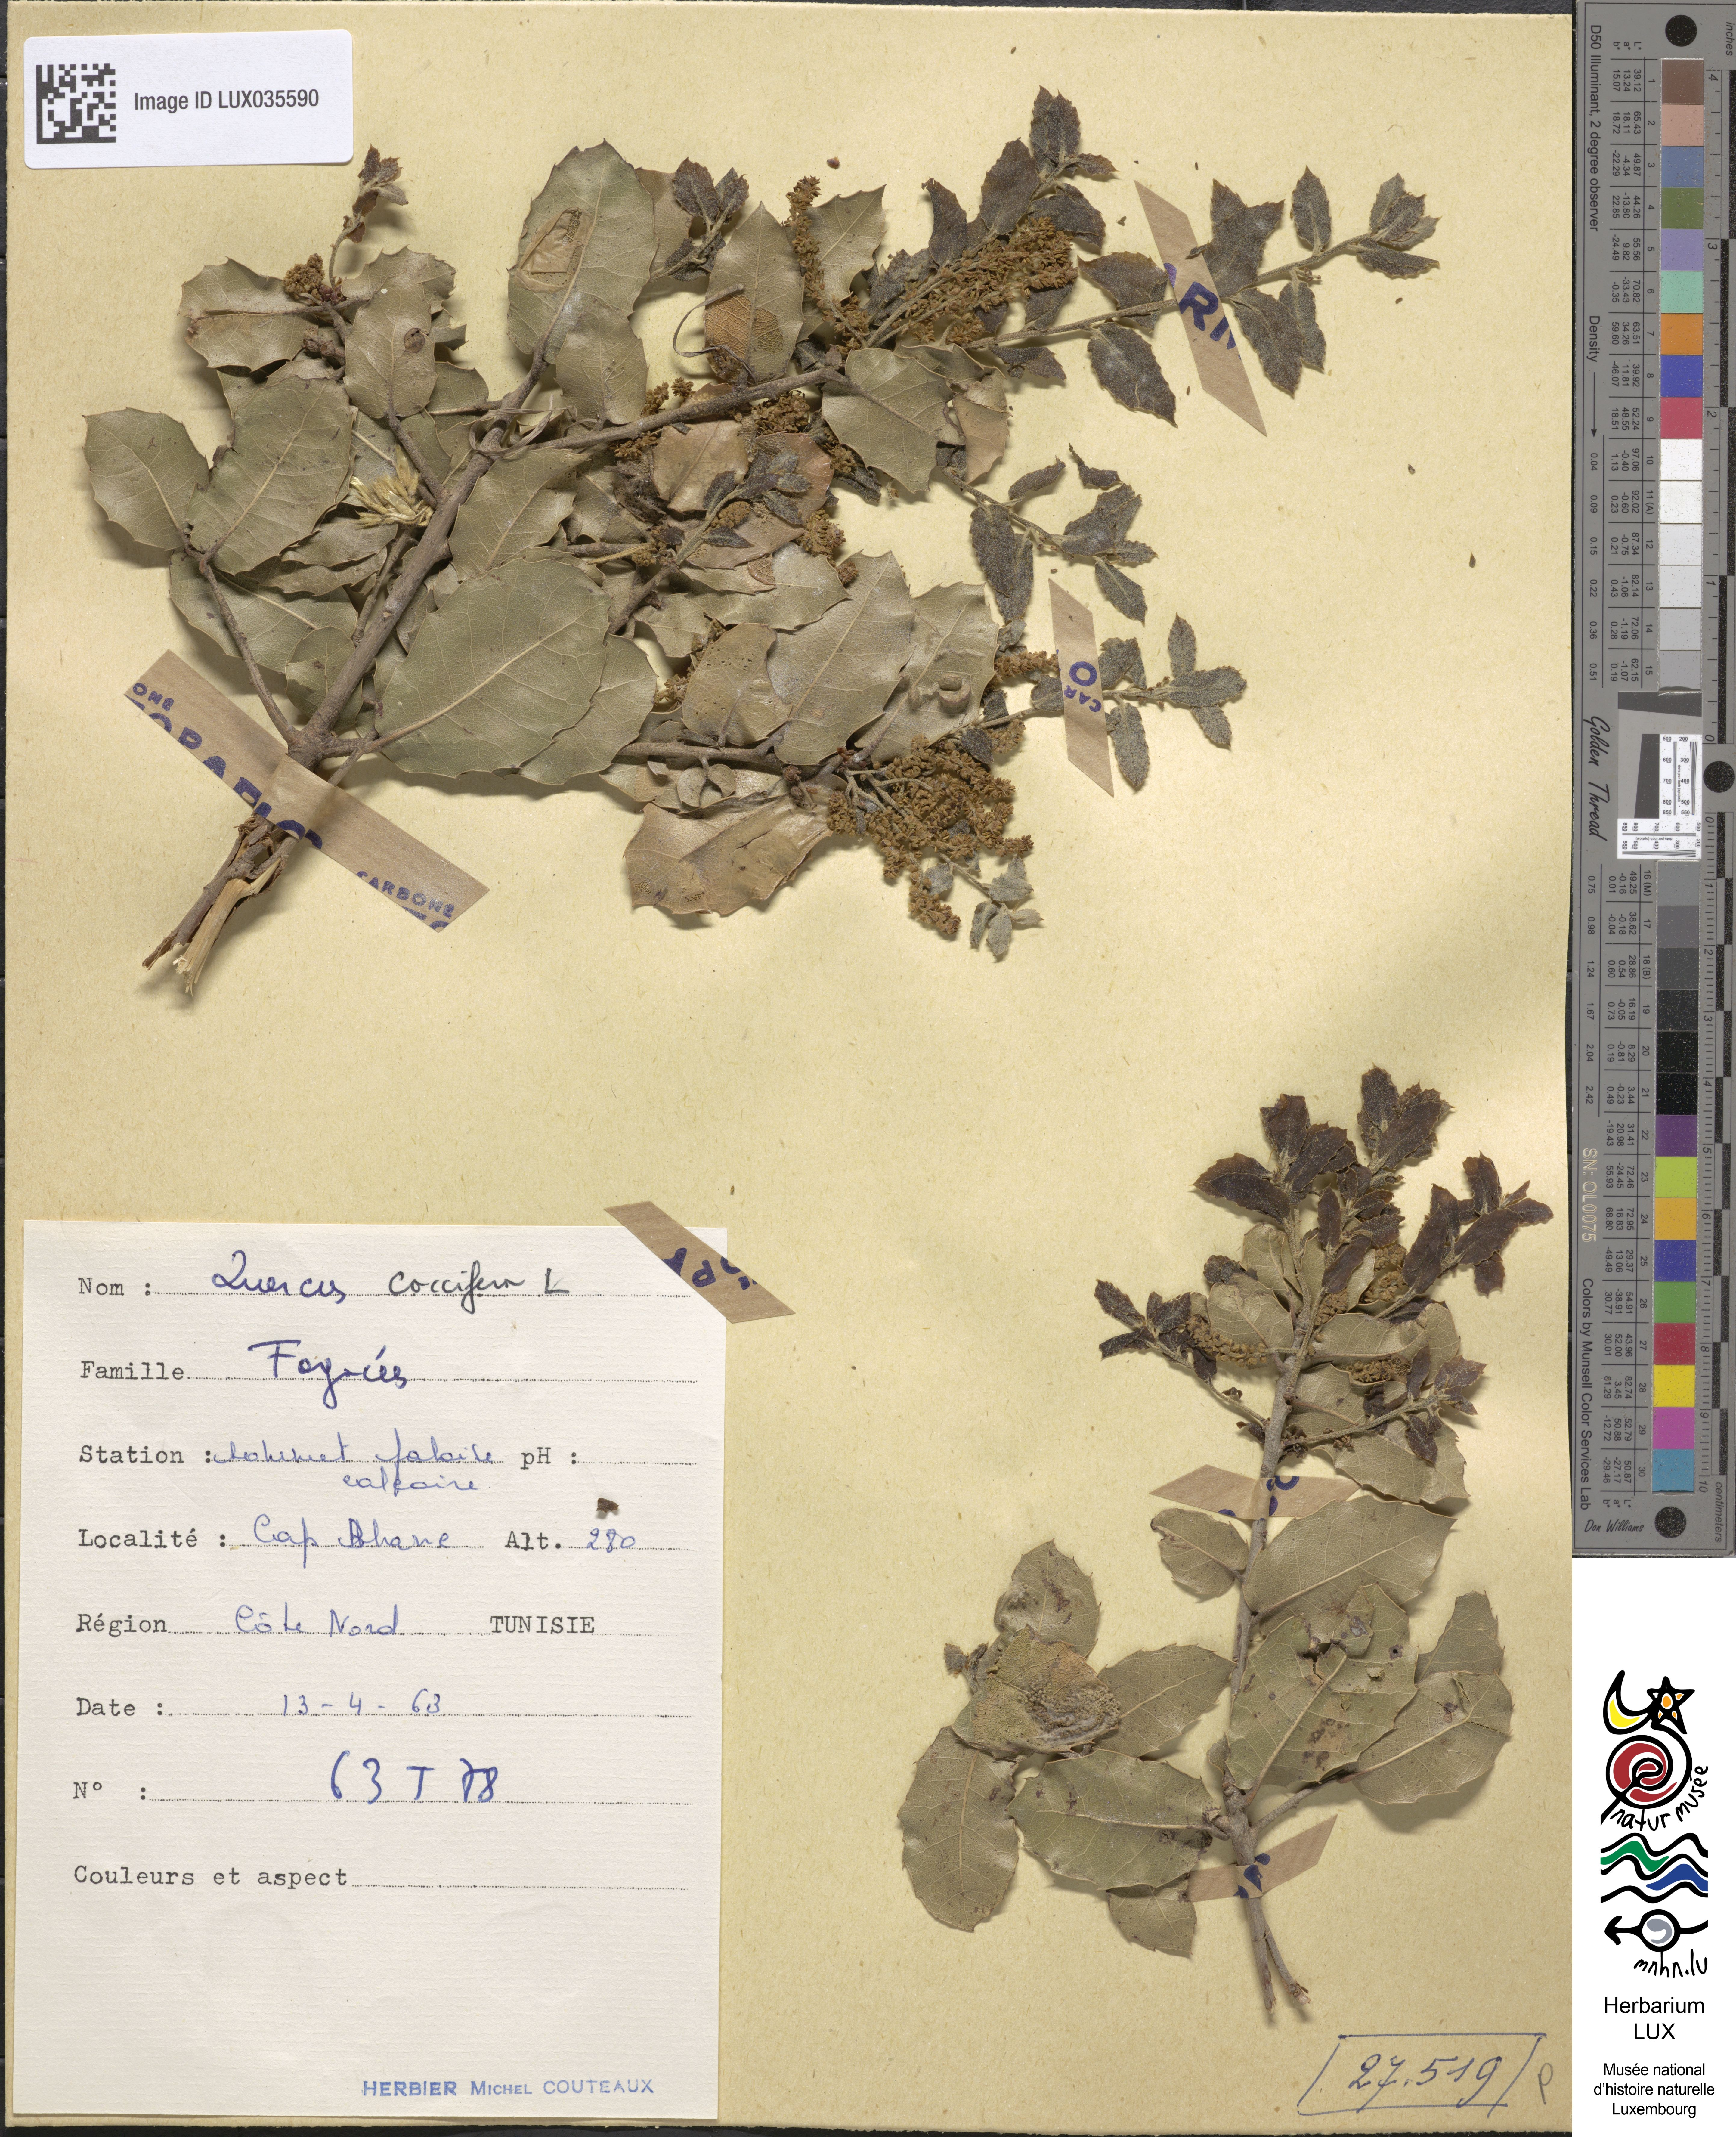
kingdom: Plantae
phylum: Tracheophyta
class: Magnoliopsida
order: Fagales
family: Fagaceae
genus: Quercus
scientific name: Quercus coccifera
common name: Kermes oak
